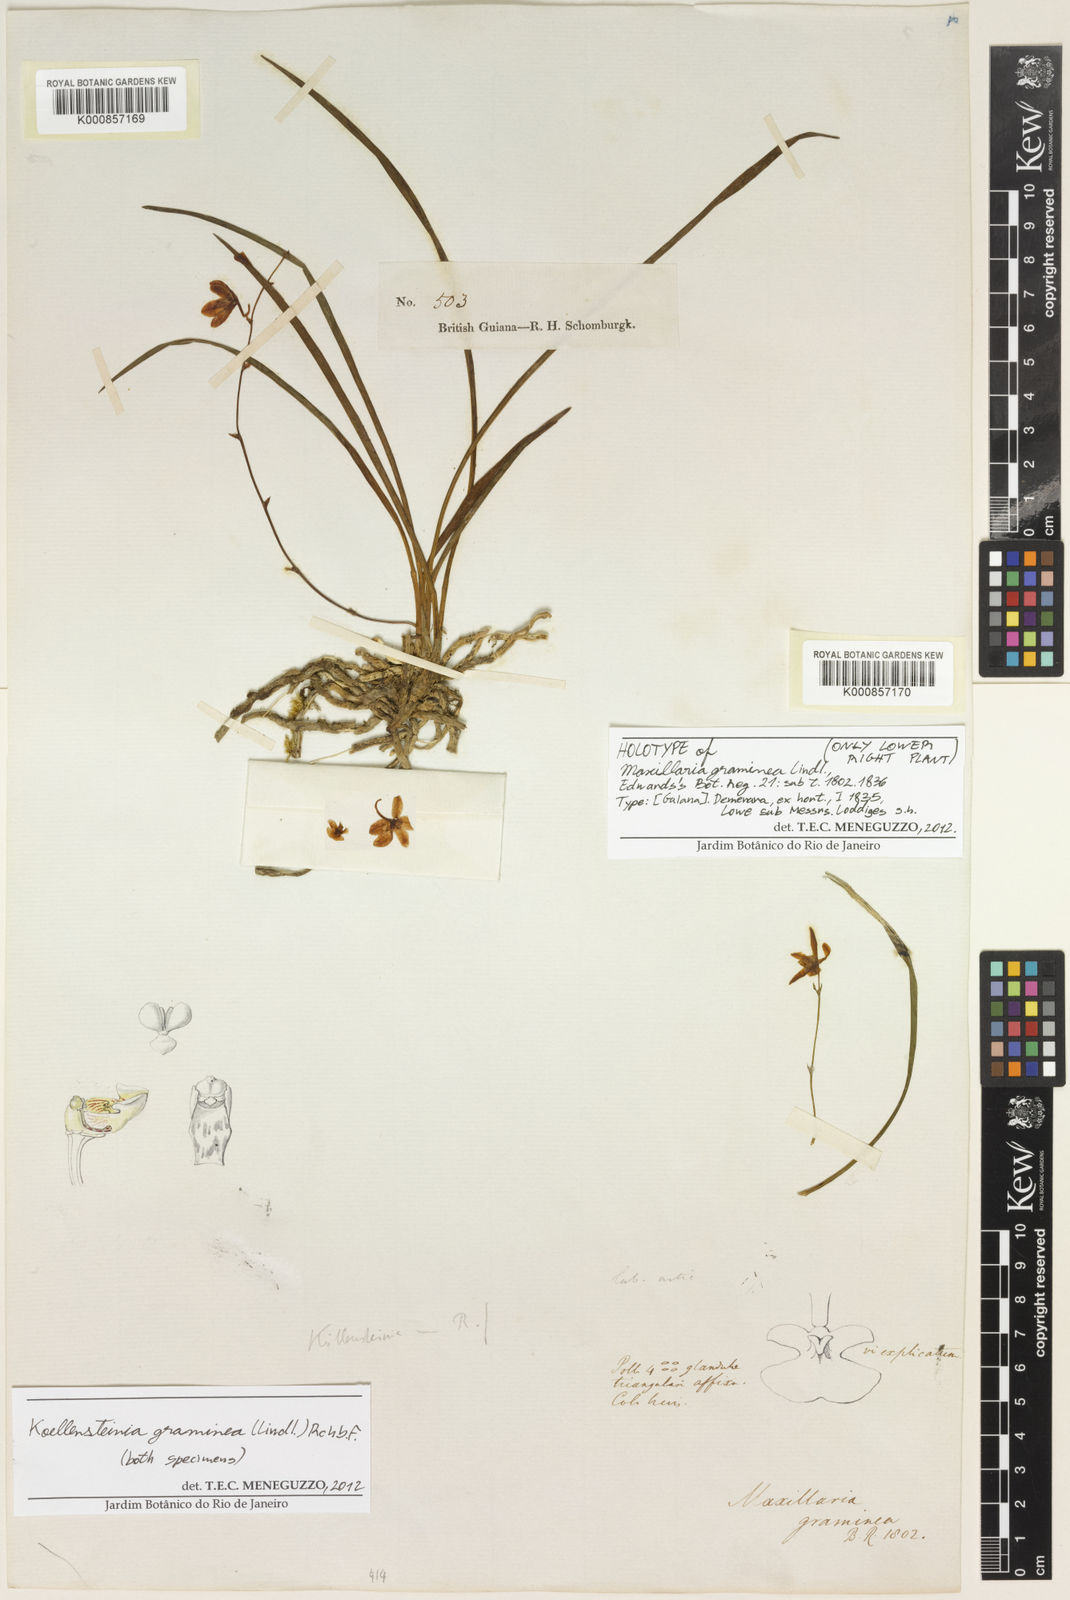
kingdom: Plantae
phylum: Tracheophyta
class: Liliopsida
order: Asparagales
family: Orchidaceae
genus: Koellensteinia
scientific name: Koellensteinia graminea
